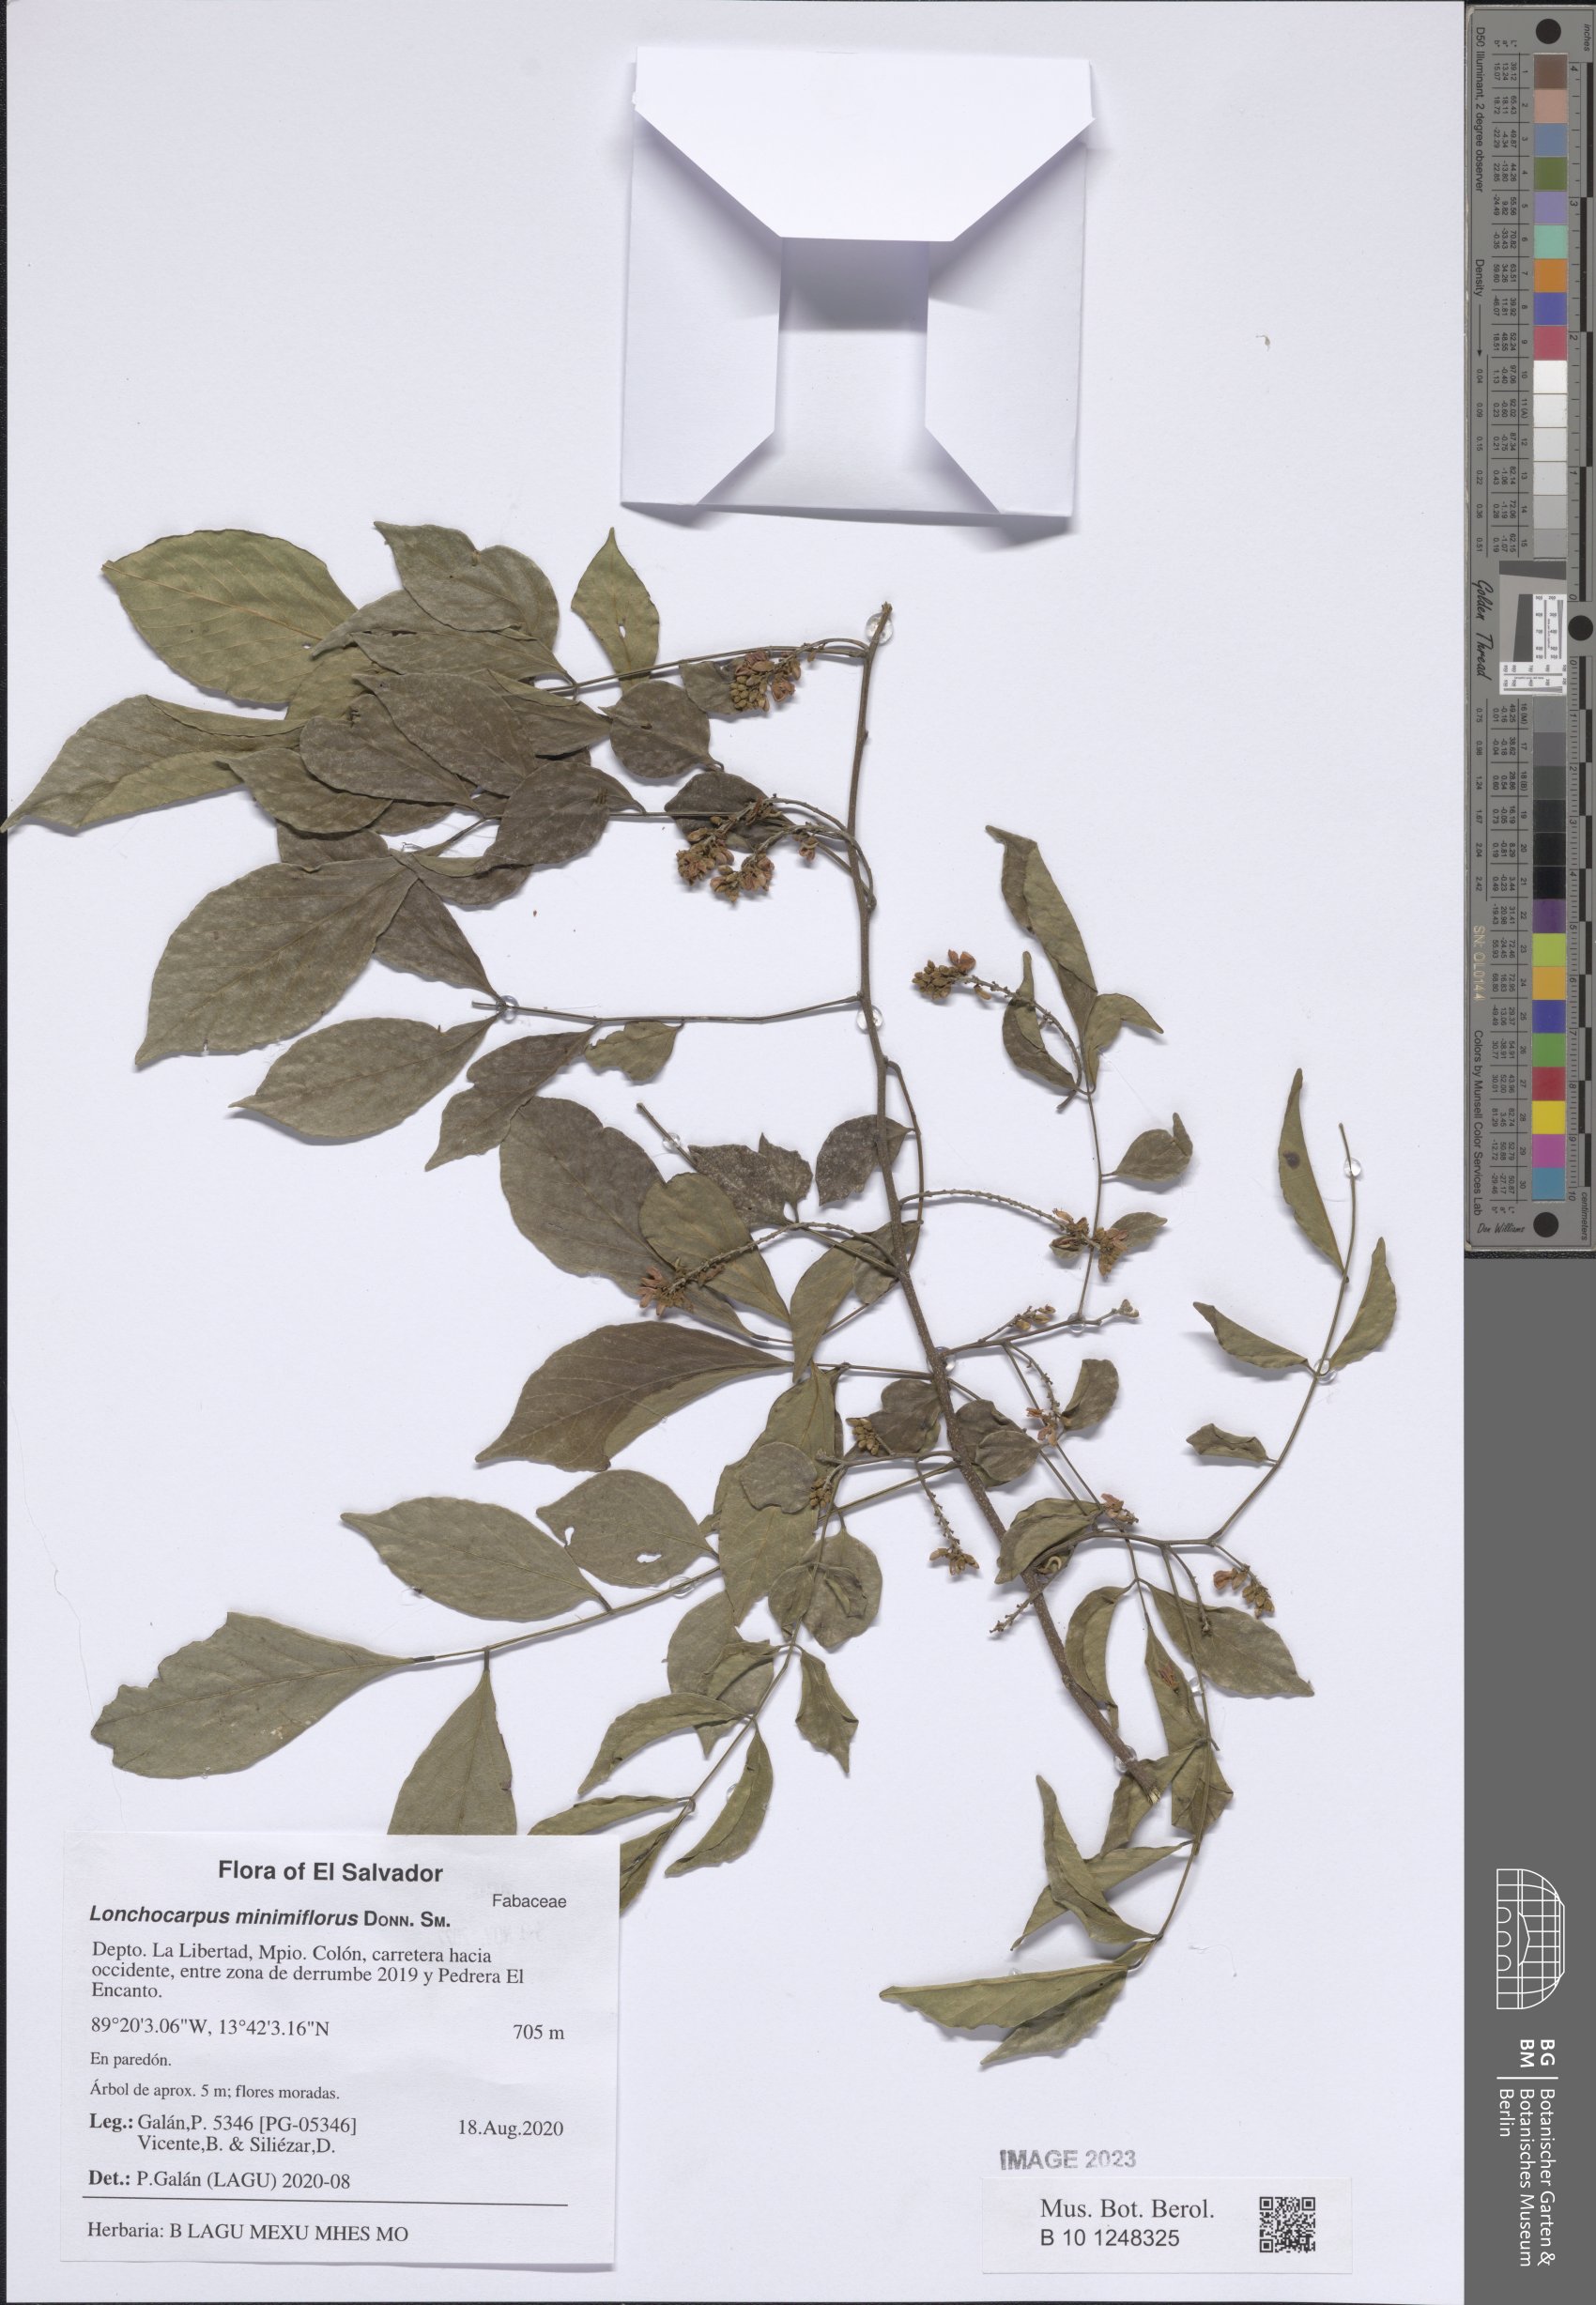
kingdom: Plantae
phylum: Tracheophyta
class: Magnoliopsida
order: Fabales
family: Fabaceae
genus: Lonchocarpus
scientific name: Lonchocarpus minimiflorus
